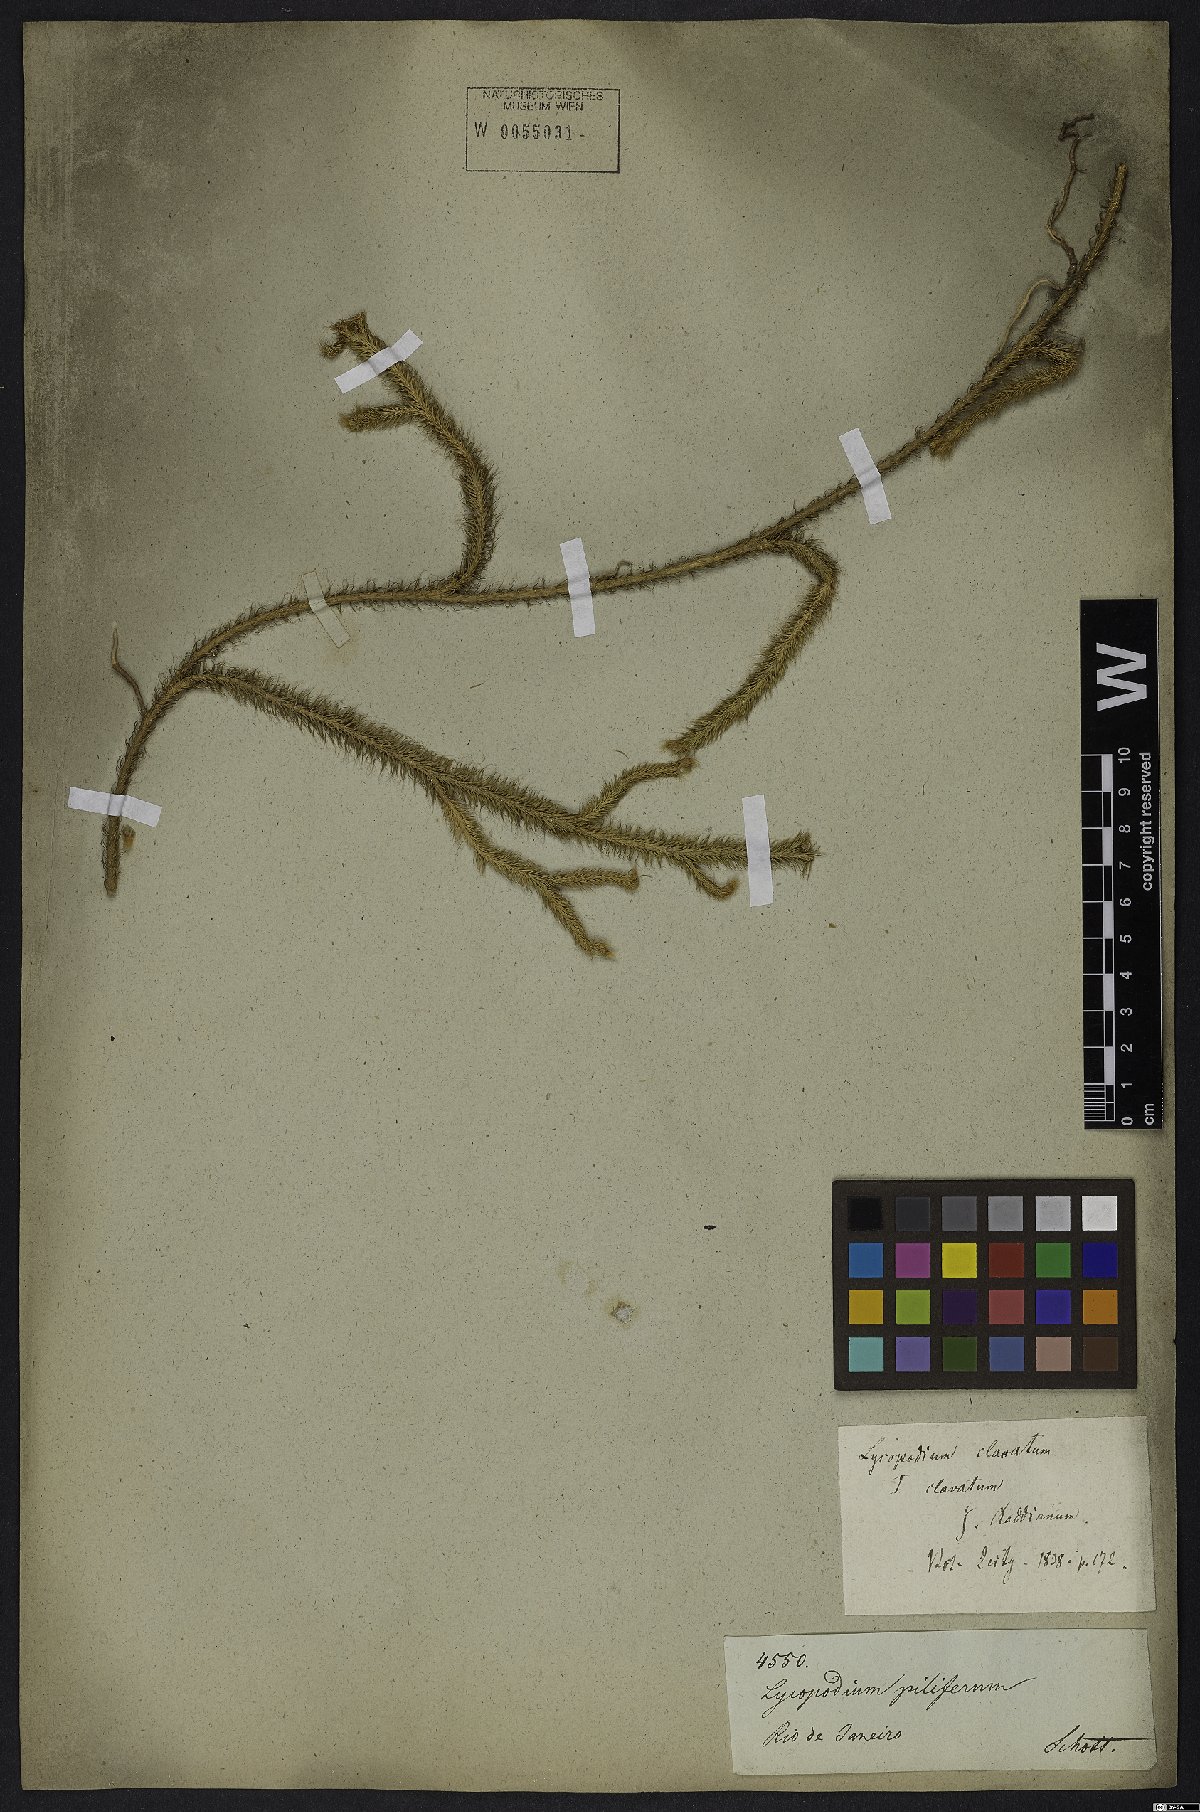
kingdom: Plantae
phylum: Tracheophyta
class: Lycopodiopsida
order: Lycopodiales
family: Lycopodiaceae
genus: Lycopodium
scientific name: Lycopodium clavatum
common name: Stag's-horn clubmoss
